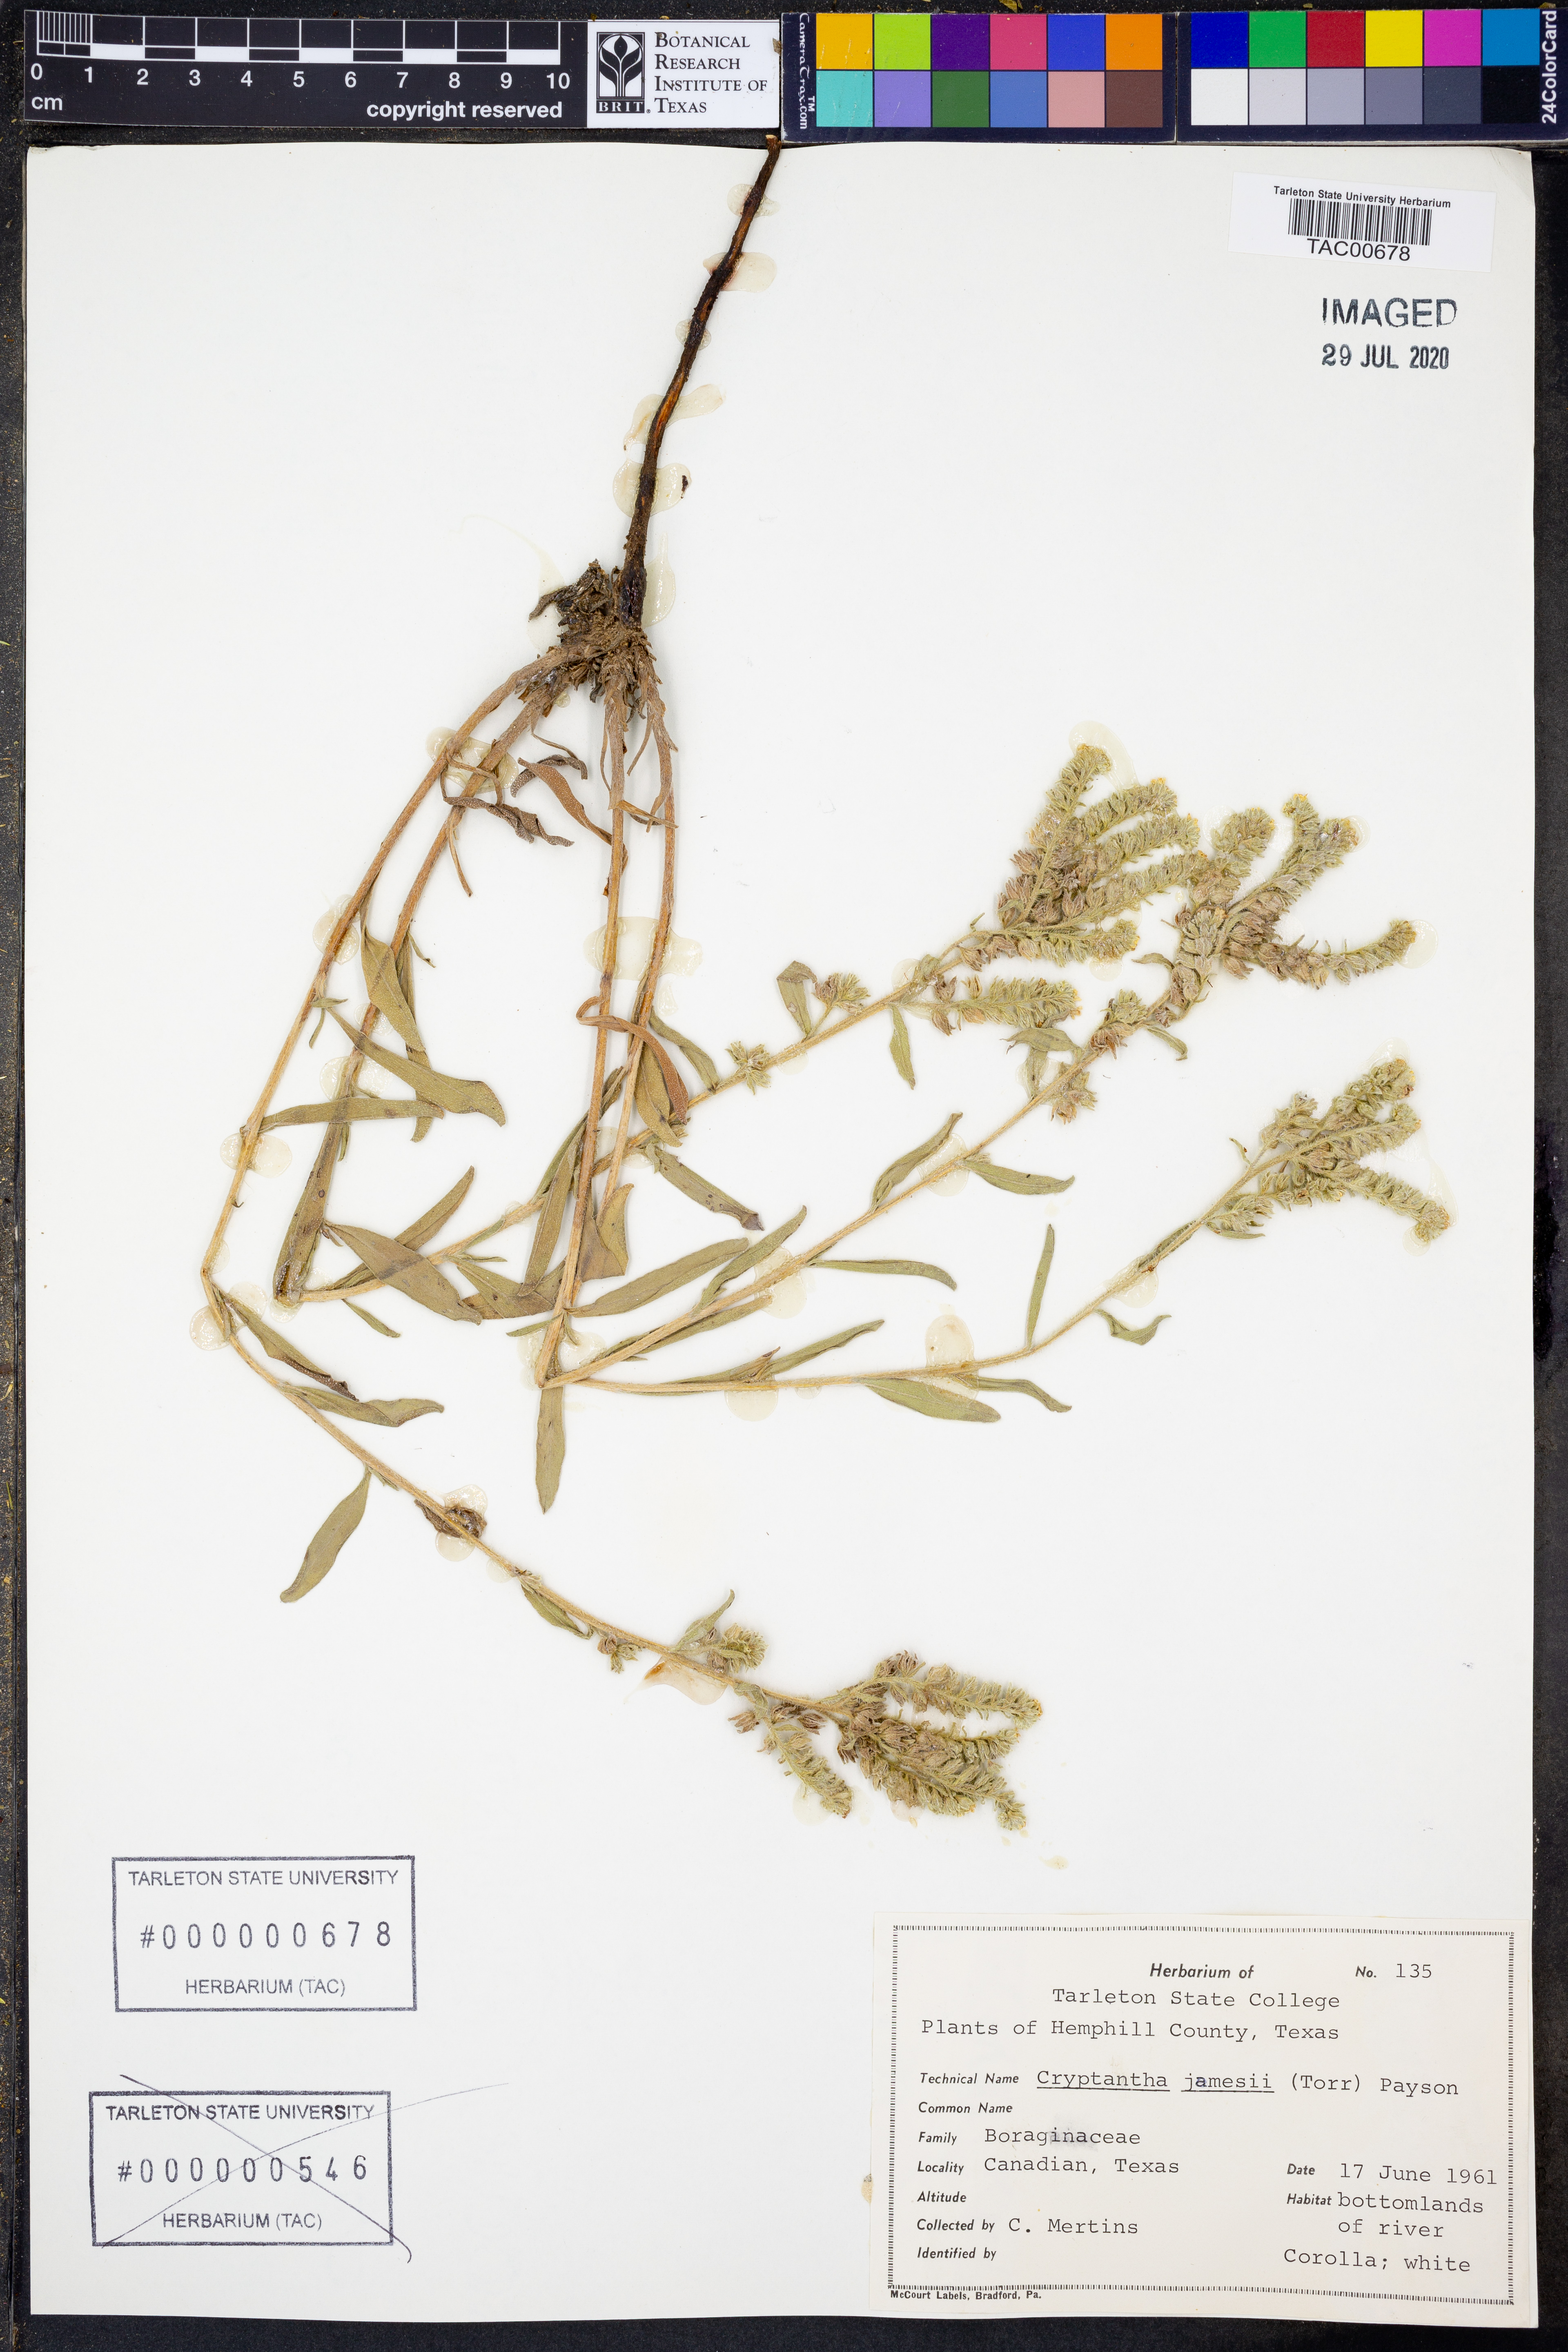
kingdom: Plantae
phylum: Tracheophyta
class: Magnoliopsida
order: Boraginales
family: Boraginaceae
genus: Oreocarya
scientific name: Oreocarya suffruticosa
